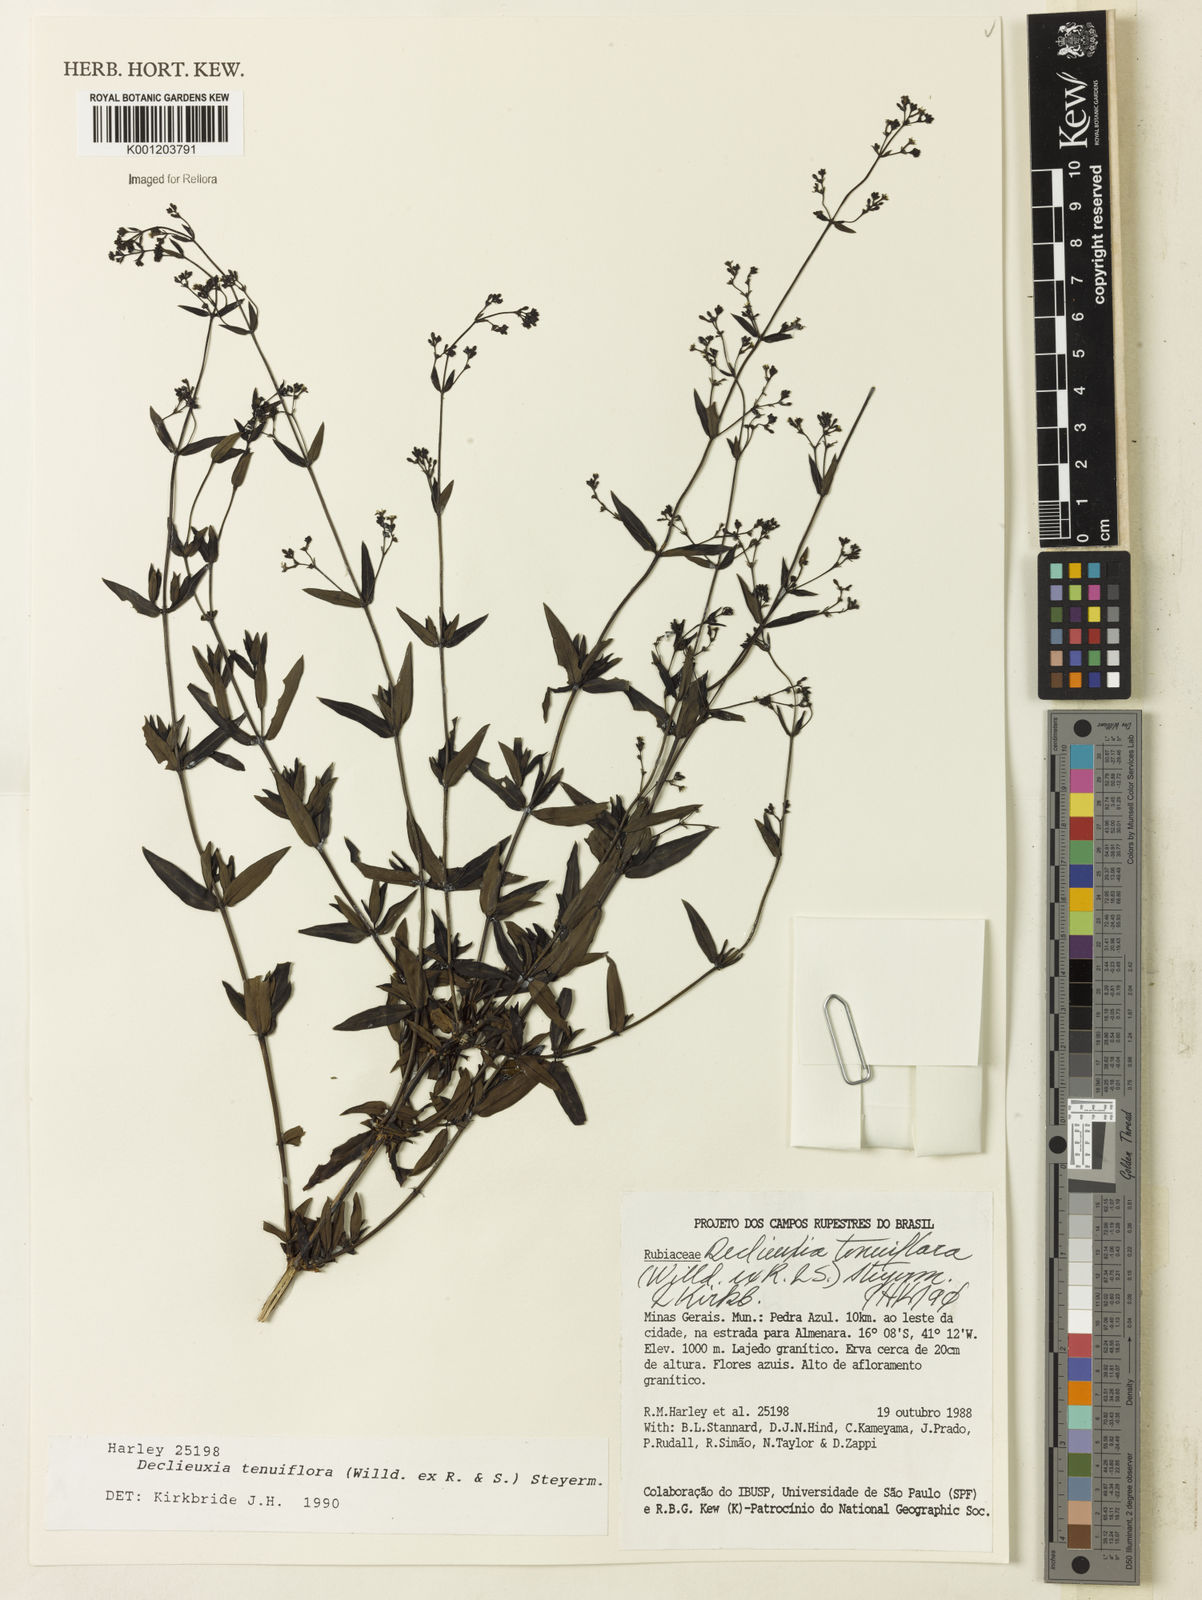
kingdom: Plantae
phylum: Tracheophyta
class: Magnoliopsida
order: Gentianales
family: Rubiaceae
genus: Declieuxia
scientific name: Declieuxia tenuiflora
